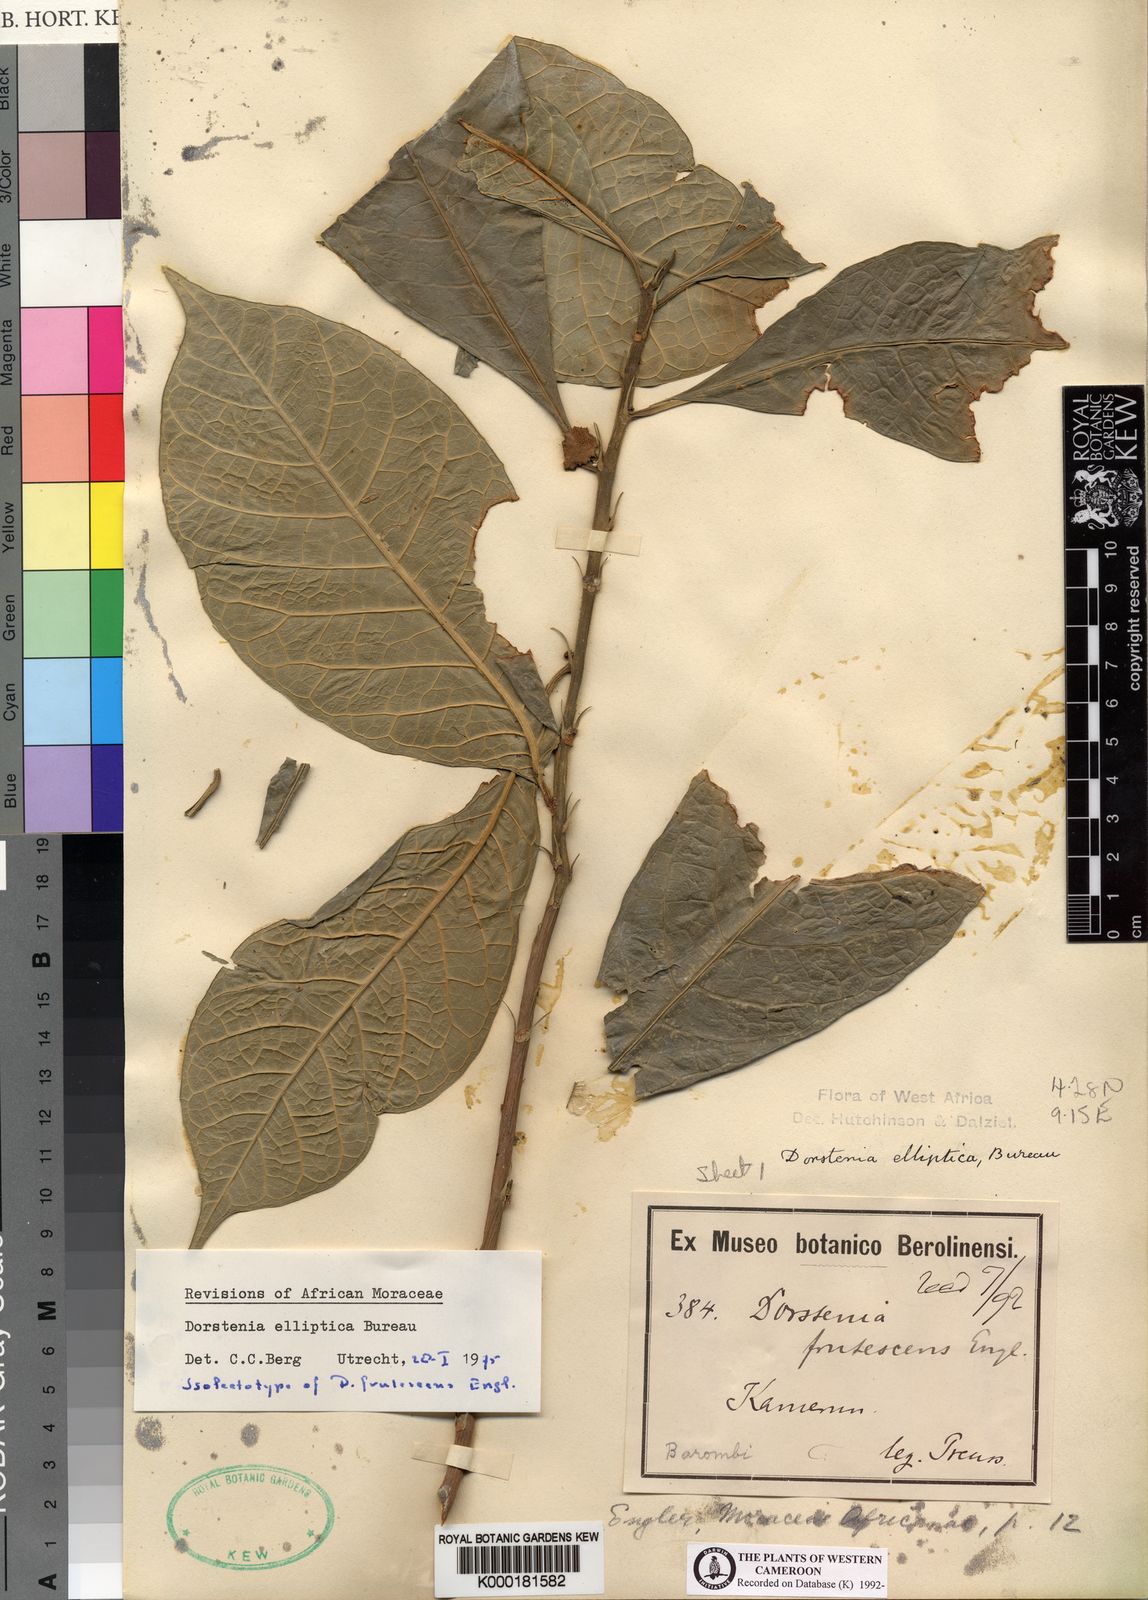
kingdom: Plantae
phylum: Tracheophyta
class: Magnoliopsida
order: Rosales
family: Moraceae
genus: Dorstenia
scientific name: Dorstenia elliptica
